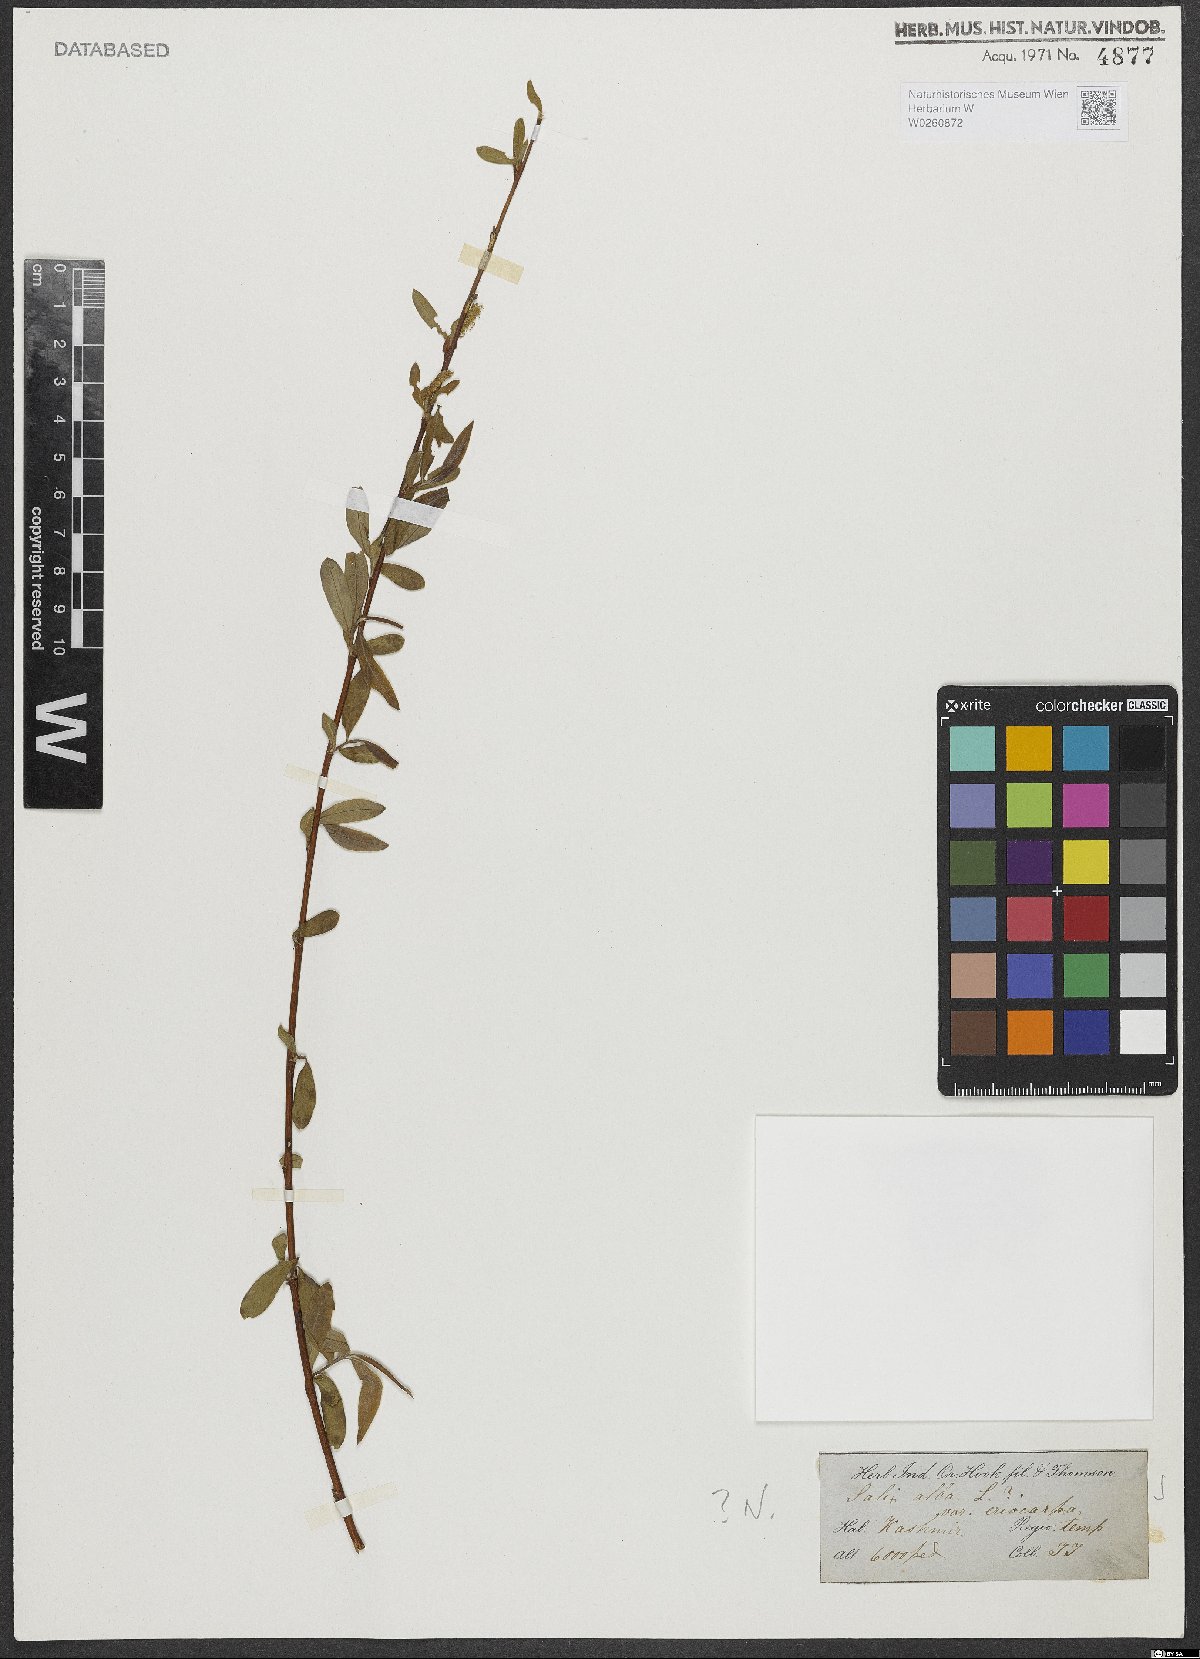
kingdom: Plantae
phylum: Tracheophyta
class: Magnoliopsida
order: Malpighiales
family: Salicaceae
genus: Salix
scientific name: Salix alba
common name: White willow
